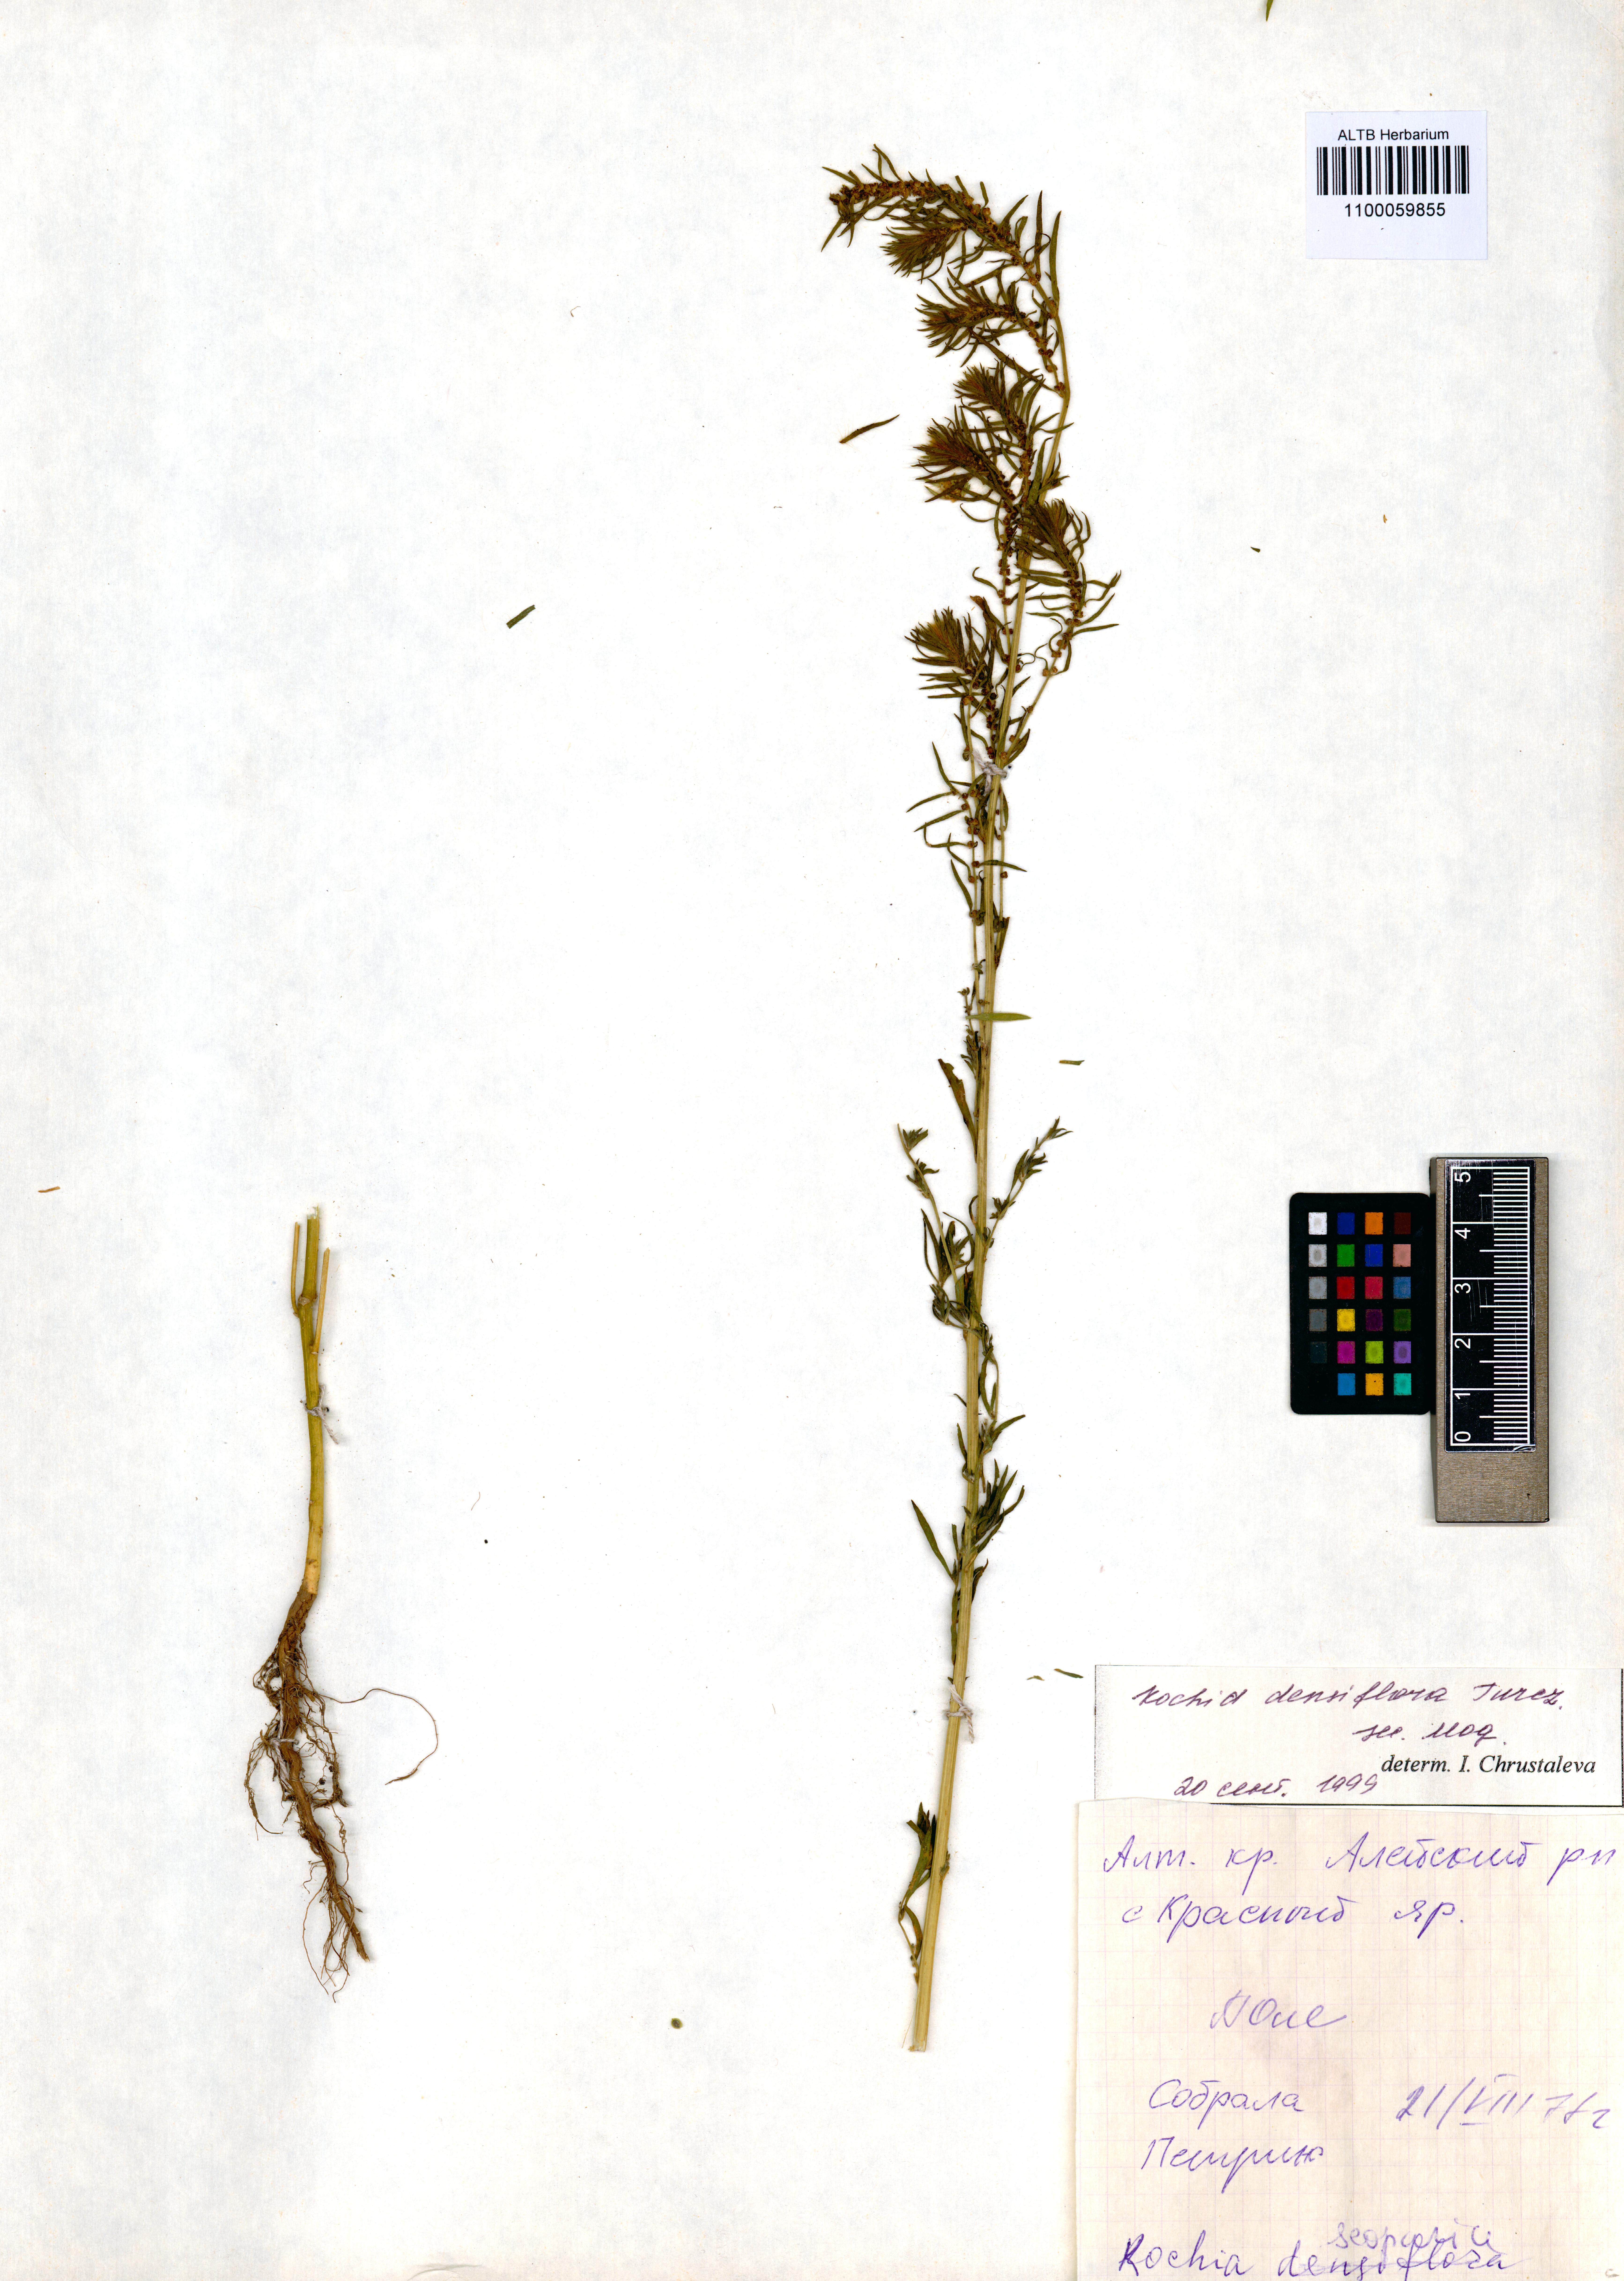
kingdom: Plantae
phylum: Tracheophyta
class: Magnoliopsida
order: Caryophyllales
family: Amaranthaceae
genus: Bassia
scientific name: Bassia scoparia
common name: Belvedere
